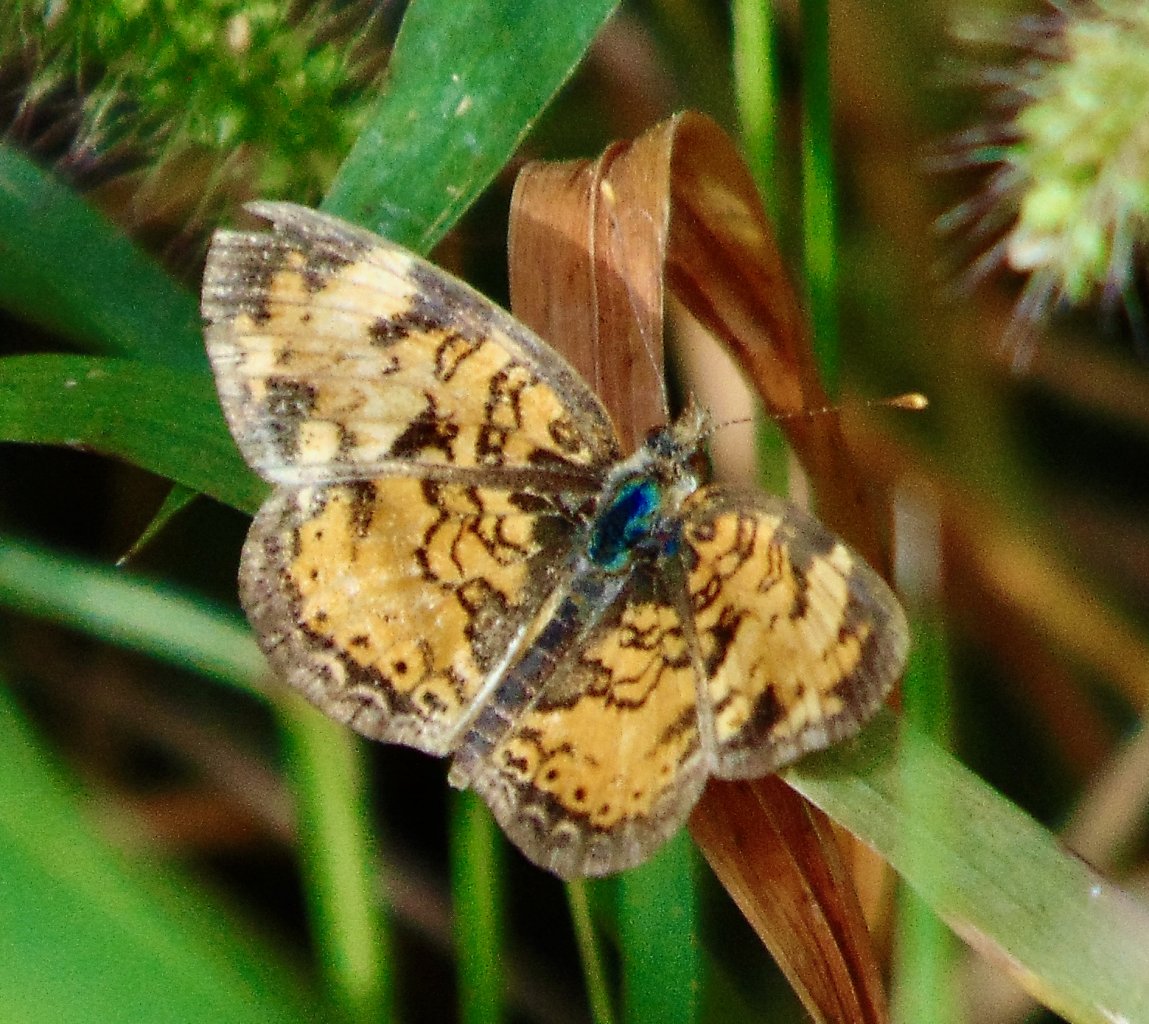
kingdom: Animalia
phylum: Arthropoda
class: Insecta
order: Lepidoptera
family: Nymphalidae
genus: Phyciodes
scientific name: Phyciodes tharos
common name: Pearl Crescent
